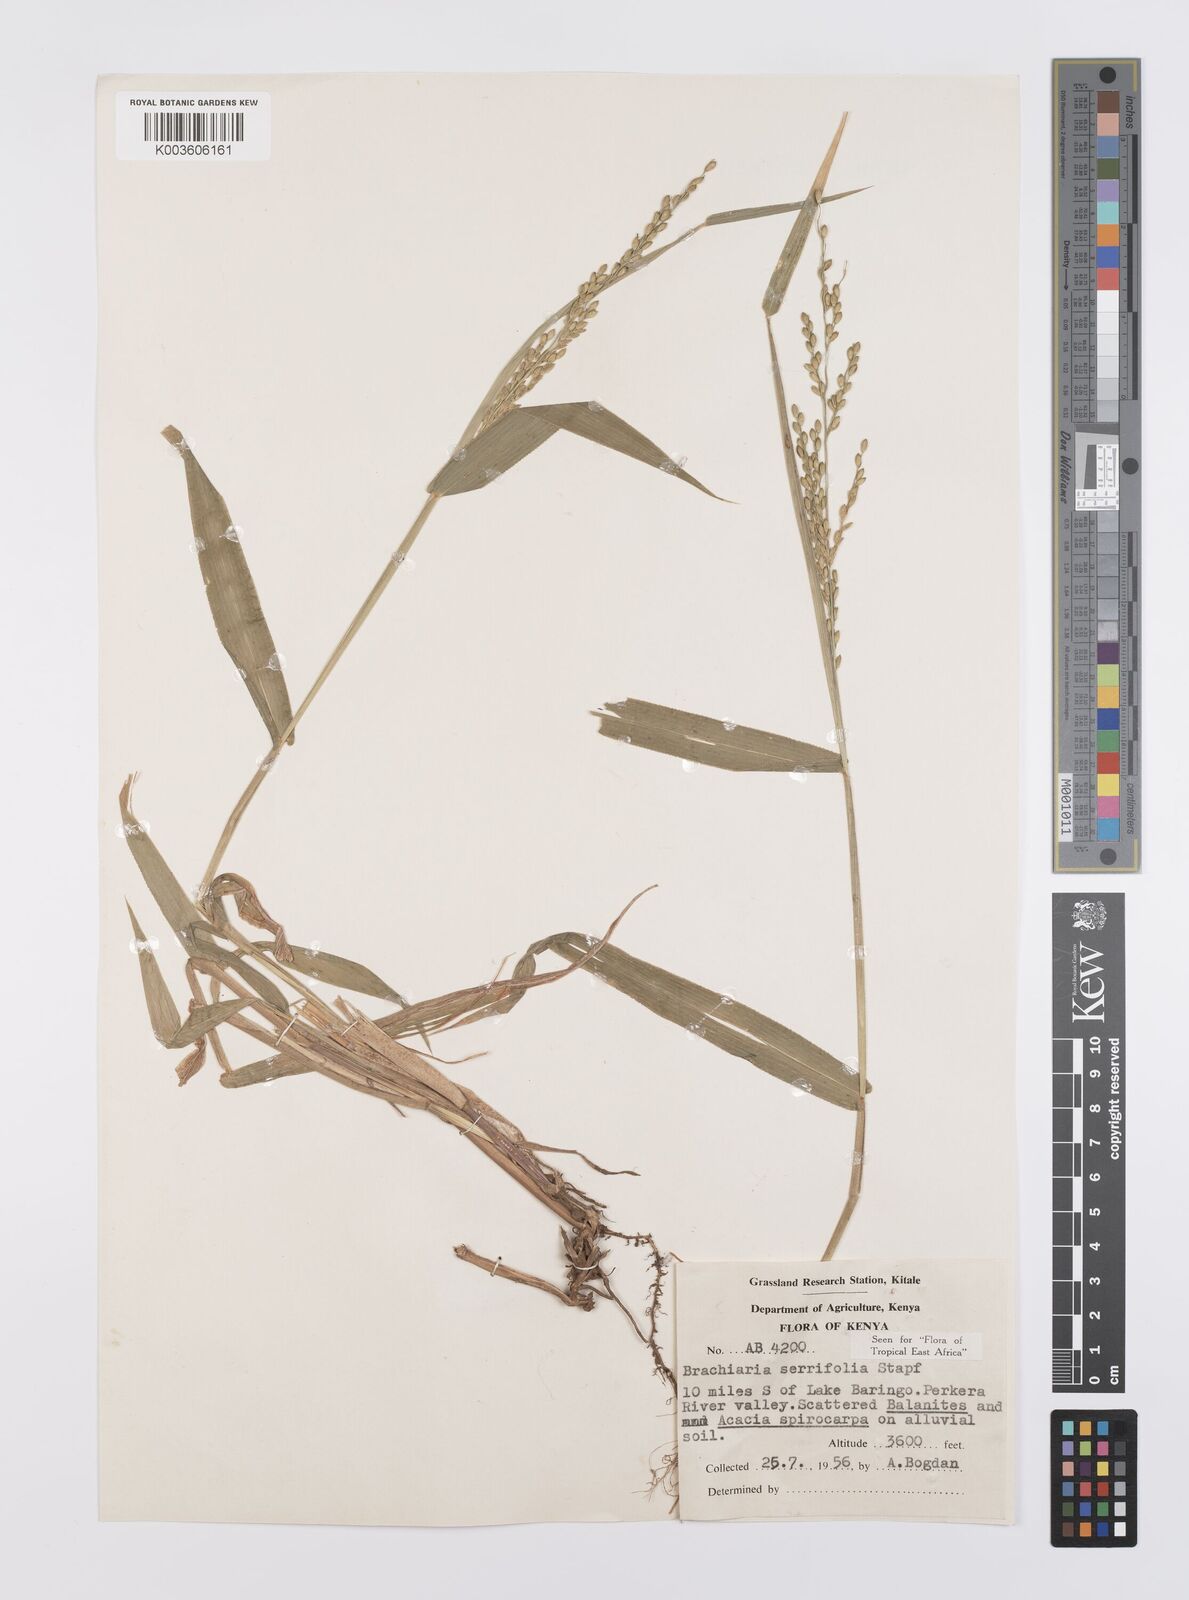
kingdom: Plantae
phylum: Tracheophyta
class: Liliopsida
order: Poales
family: Poaceae
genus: Urochloa
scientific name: Urochloa serrifolia
